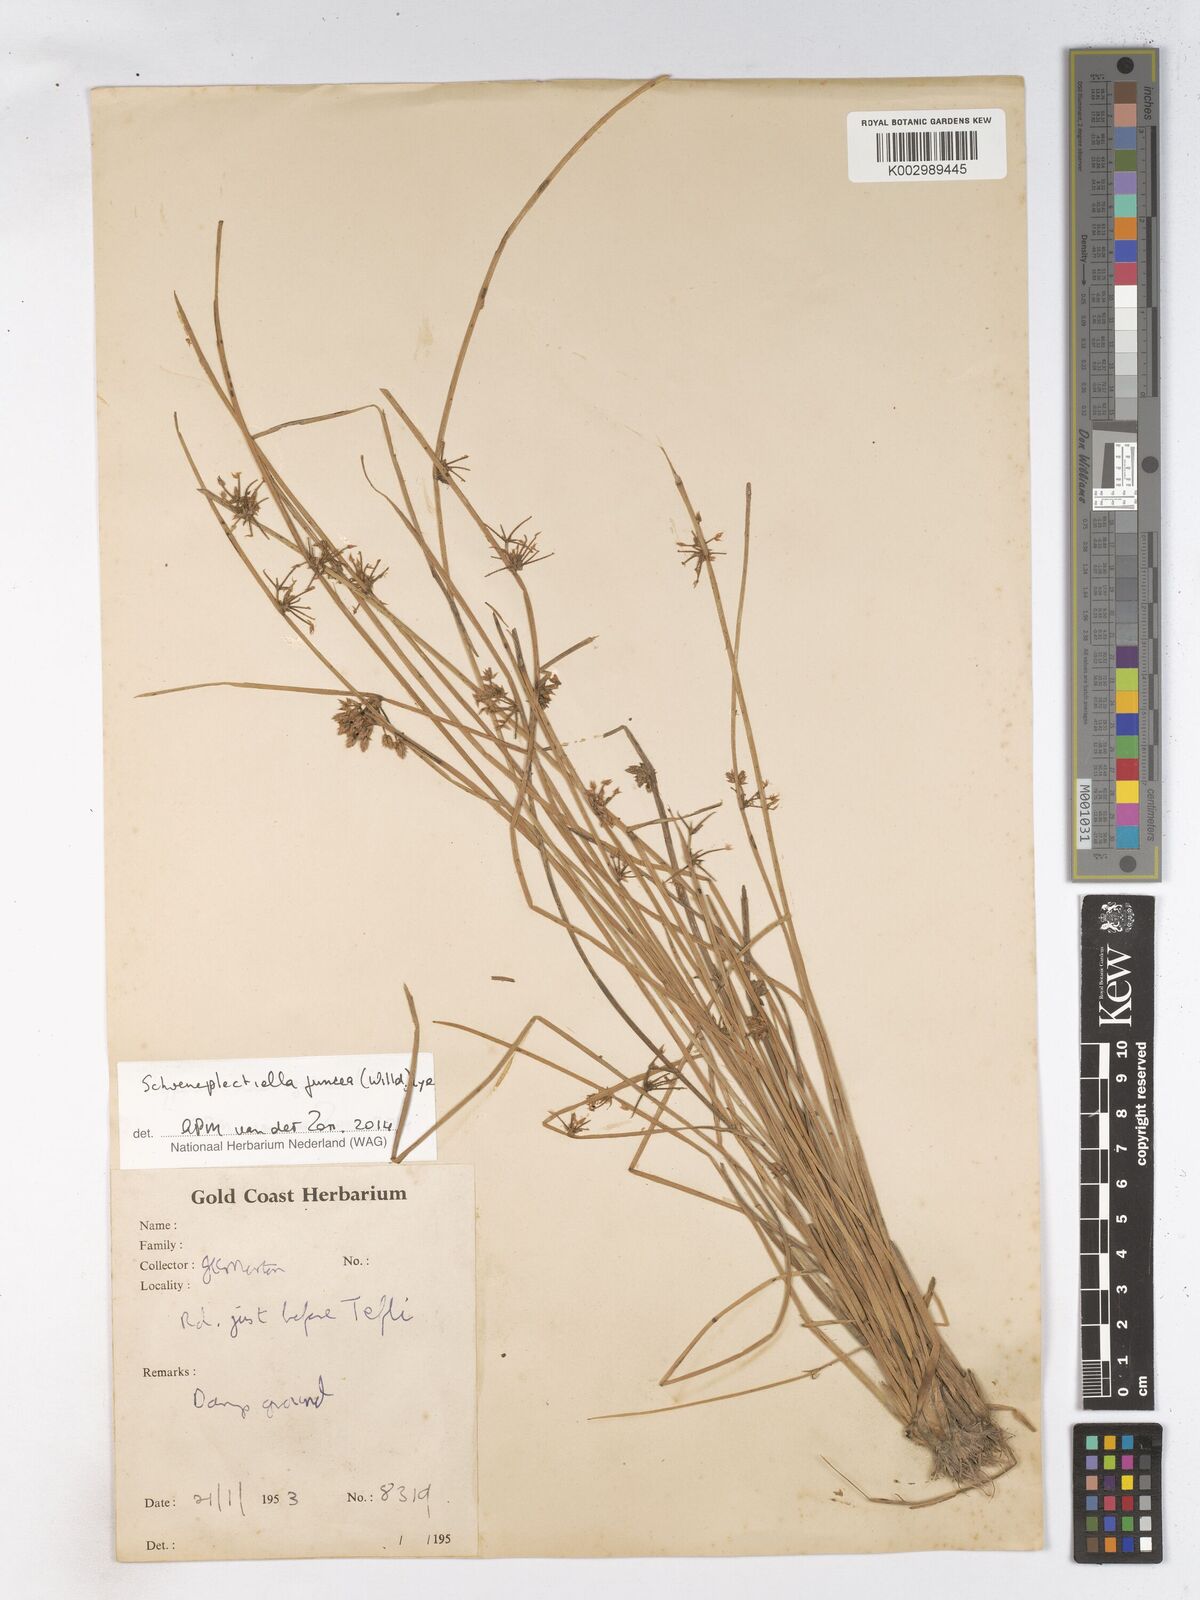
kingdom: Plantae
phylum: Tracheophyta
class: Liliopsida
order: Poales
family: Cyperaceae
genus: Schoenoplectiella
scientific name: Schoenoplectiella juncea
